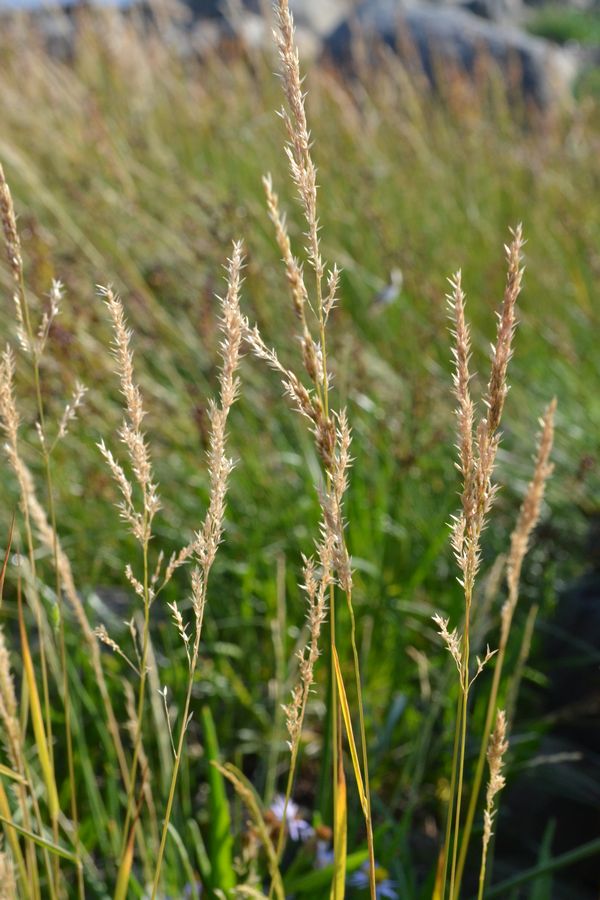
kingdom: Plantae
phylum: Tracheophyta
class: Liliopsida
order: Poales
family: Poaceae
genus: Phalaris
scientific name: Phalaris arundinacea
